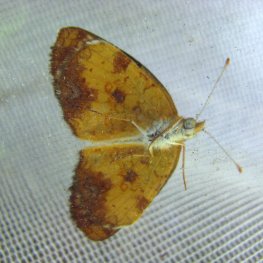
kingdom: Animalia
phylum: Arthropoda
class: Insecta
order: Lepidoptera
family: Nymphalidae
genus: Phyciodes
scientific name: Phyciodes tharos
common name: Northern Crescent
